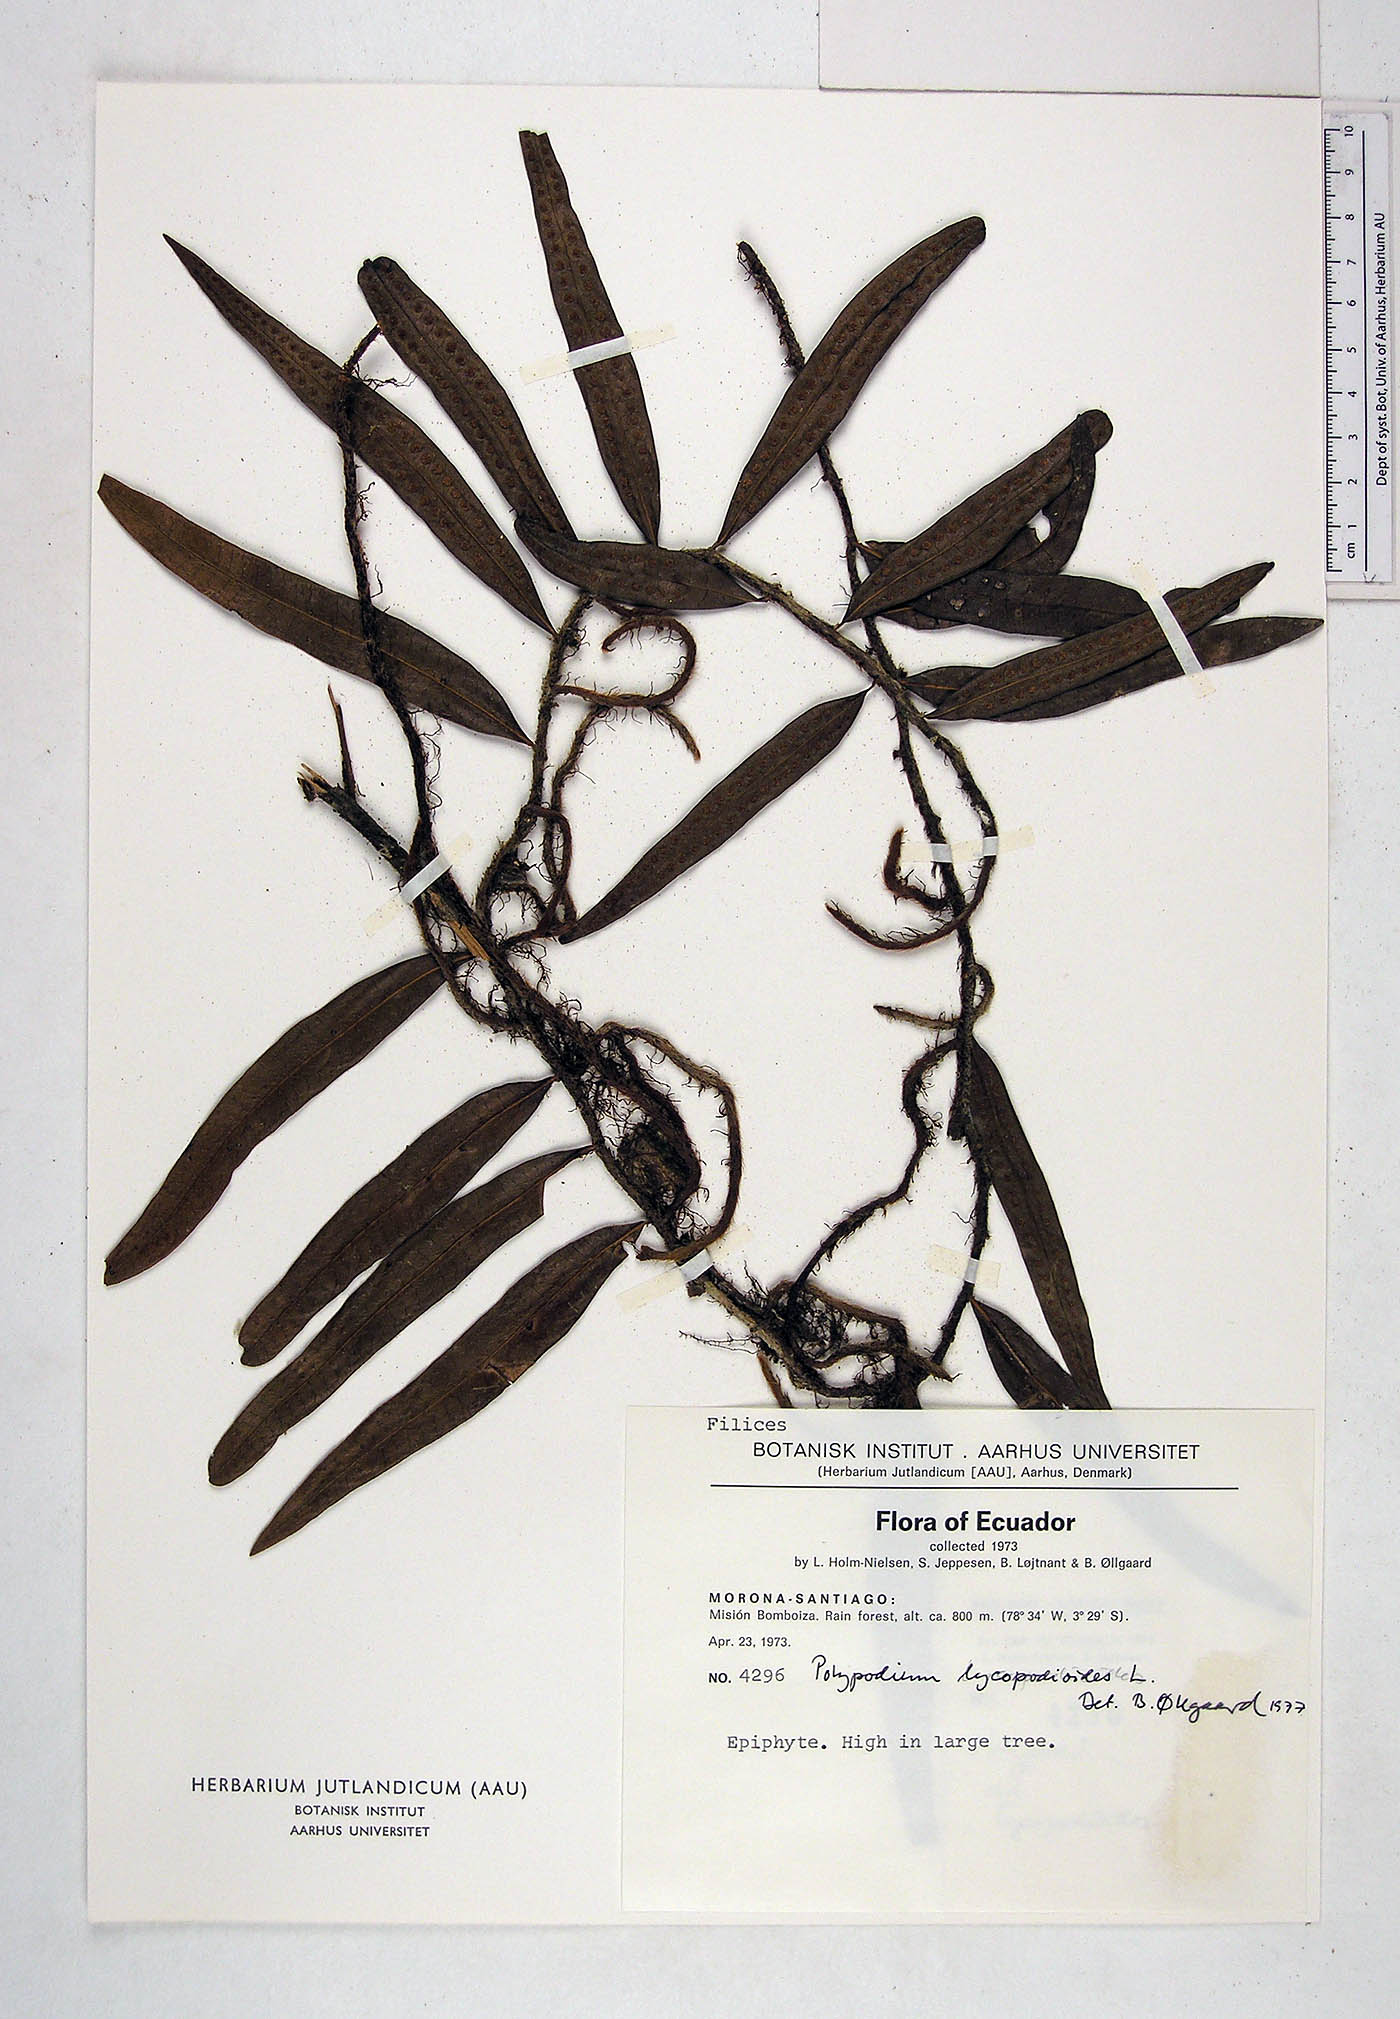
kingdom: Plantae
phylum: Tracheophyta
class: Polypodiopsida
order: Polypodiales
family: Polypodiaceae
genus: Microgramma
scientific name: Microgramma lycopodioides
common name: Bastard catclaw
